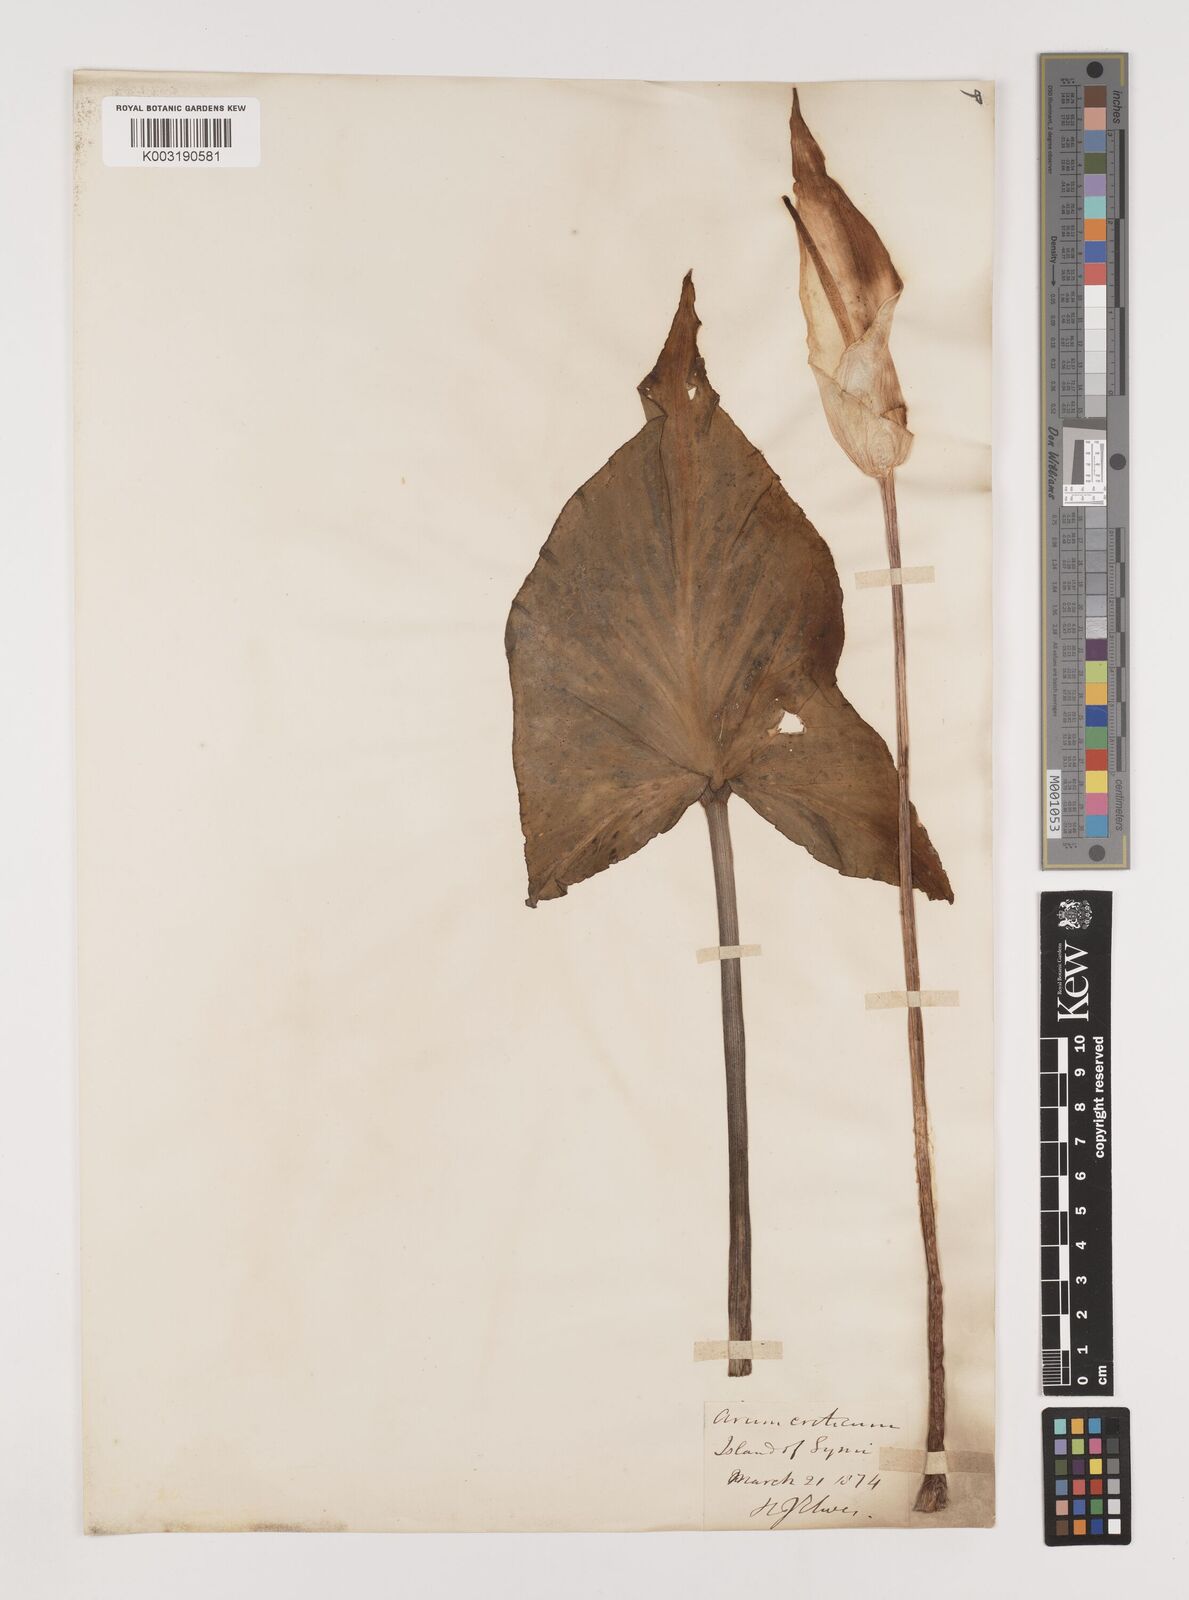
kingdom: Plantae
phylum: Tracheophyta
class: Liliopsida
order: Alismatales
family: Araceae
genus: Arum
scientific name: Arum creticum
